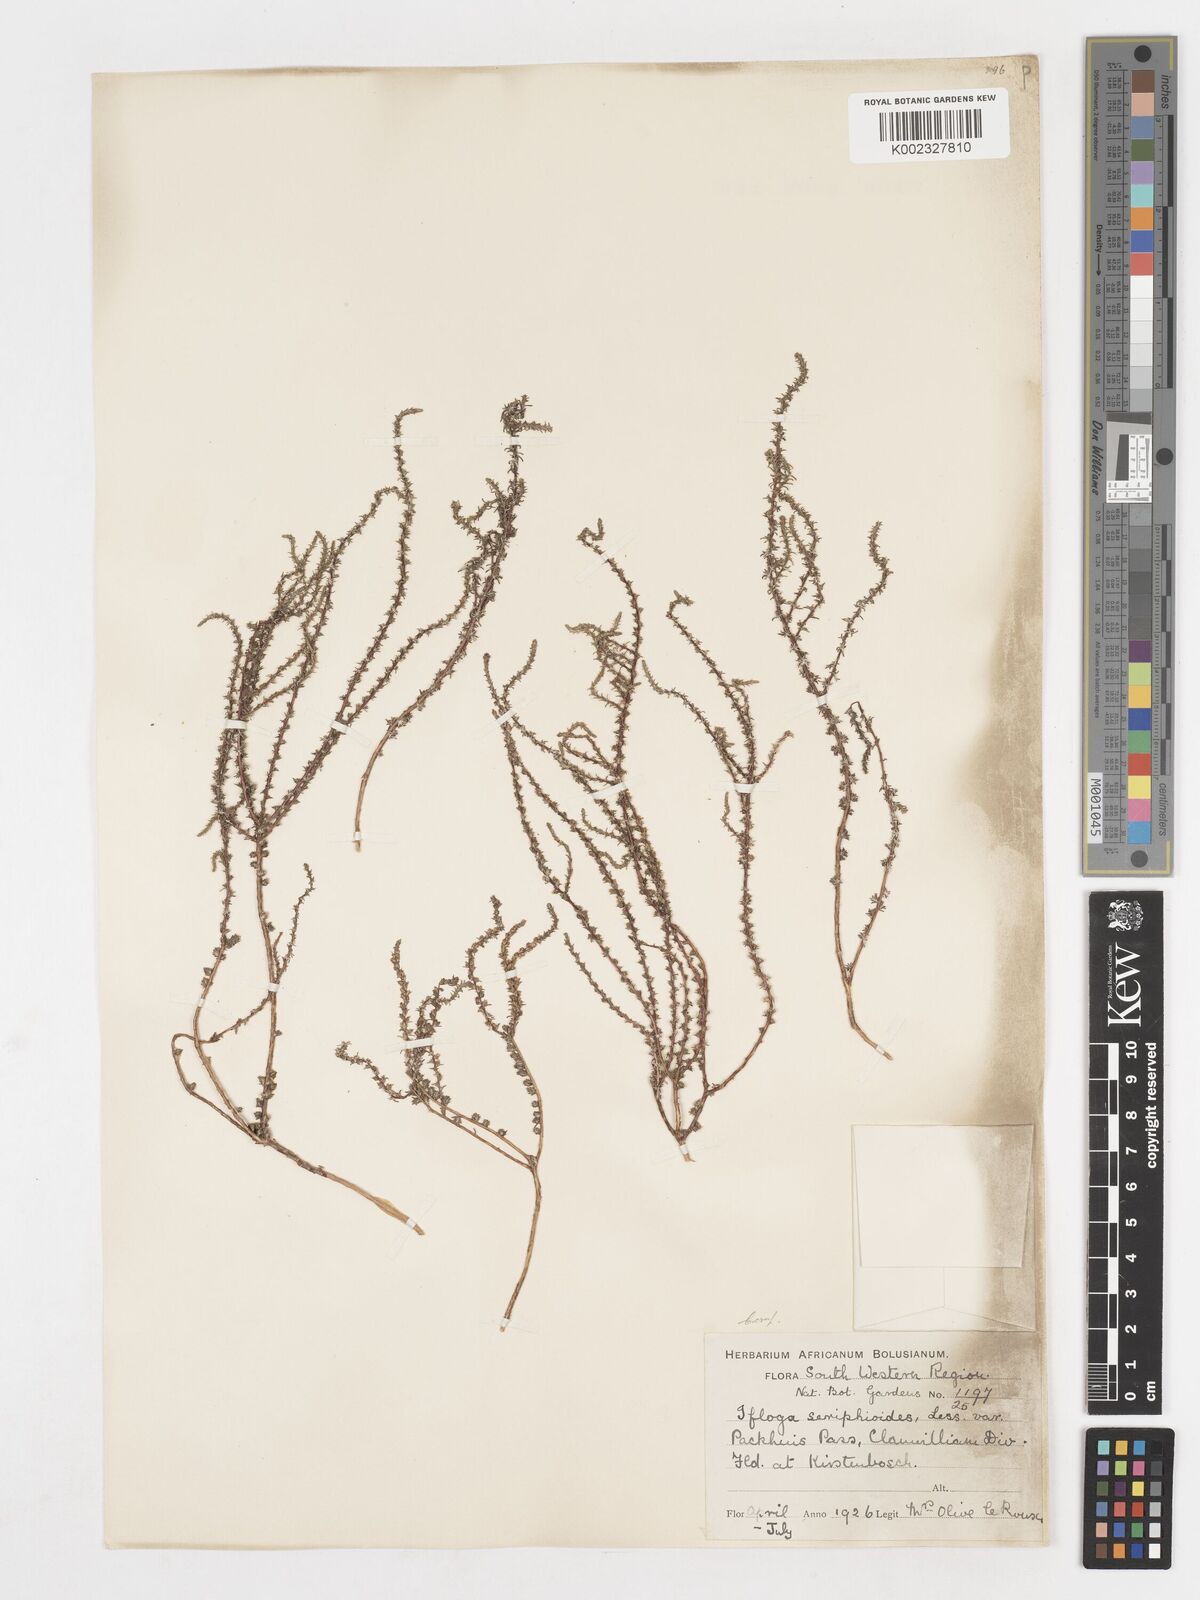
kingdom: Plantae
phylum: Tracheophyta
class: Magnoliopsida
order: Asterales
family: Asteraceae
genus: Ifloga
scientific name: Ifloga ambigua
